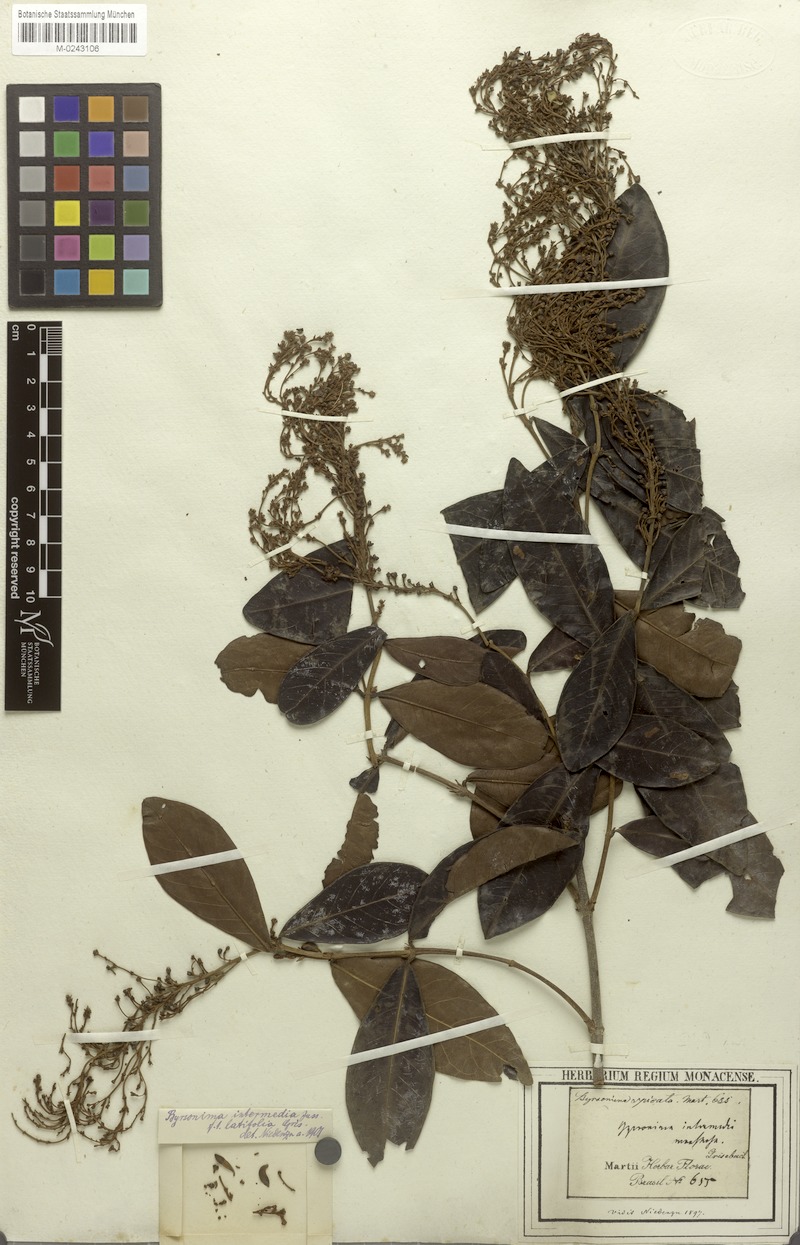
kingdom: Plantae
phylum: Tracheophyta
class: Magnoliopsida
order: Malpighiales
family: Malpighiaceae
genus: Byrsonima
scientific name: Byrsonima intermedia
